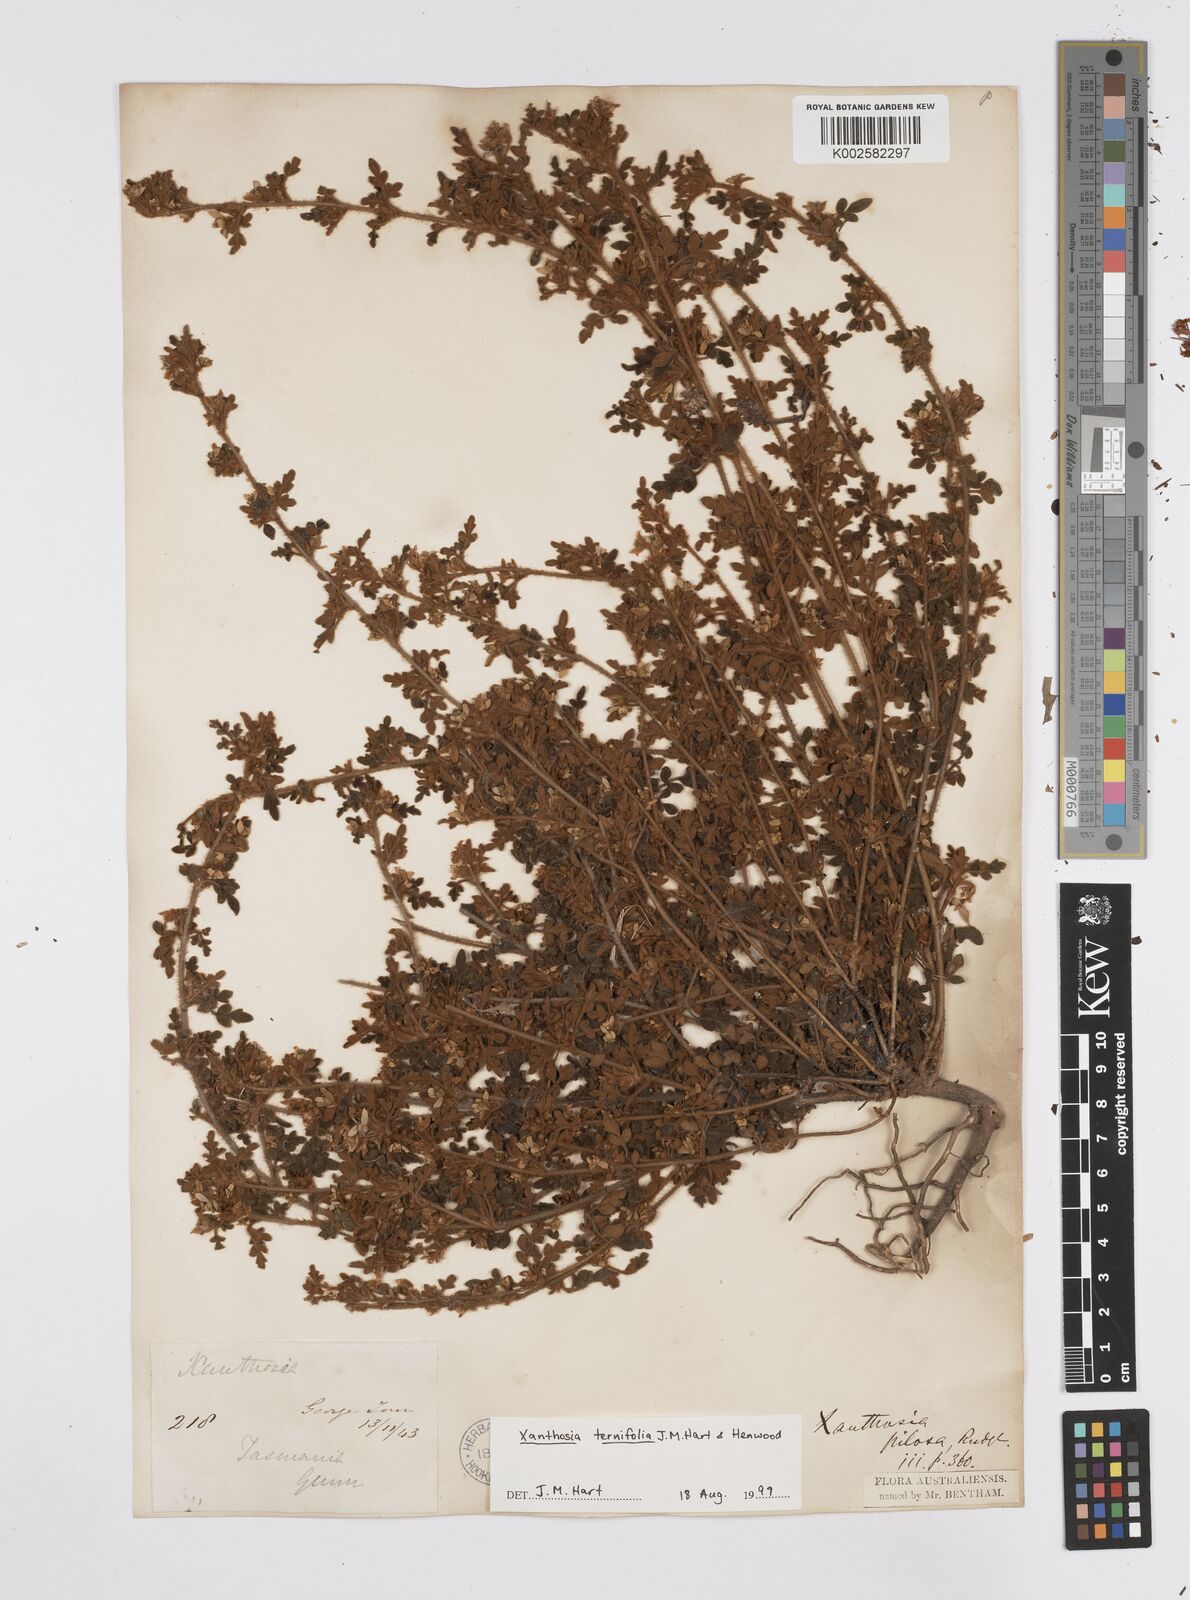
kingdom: Plantae
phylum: Tracheophyta
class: Magnoliopsida
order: Apiales
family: Apiaceae
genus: Xanthosia
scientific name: Xanthosia ternifolia
